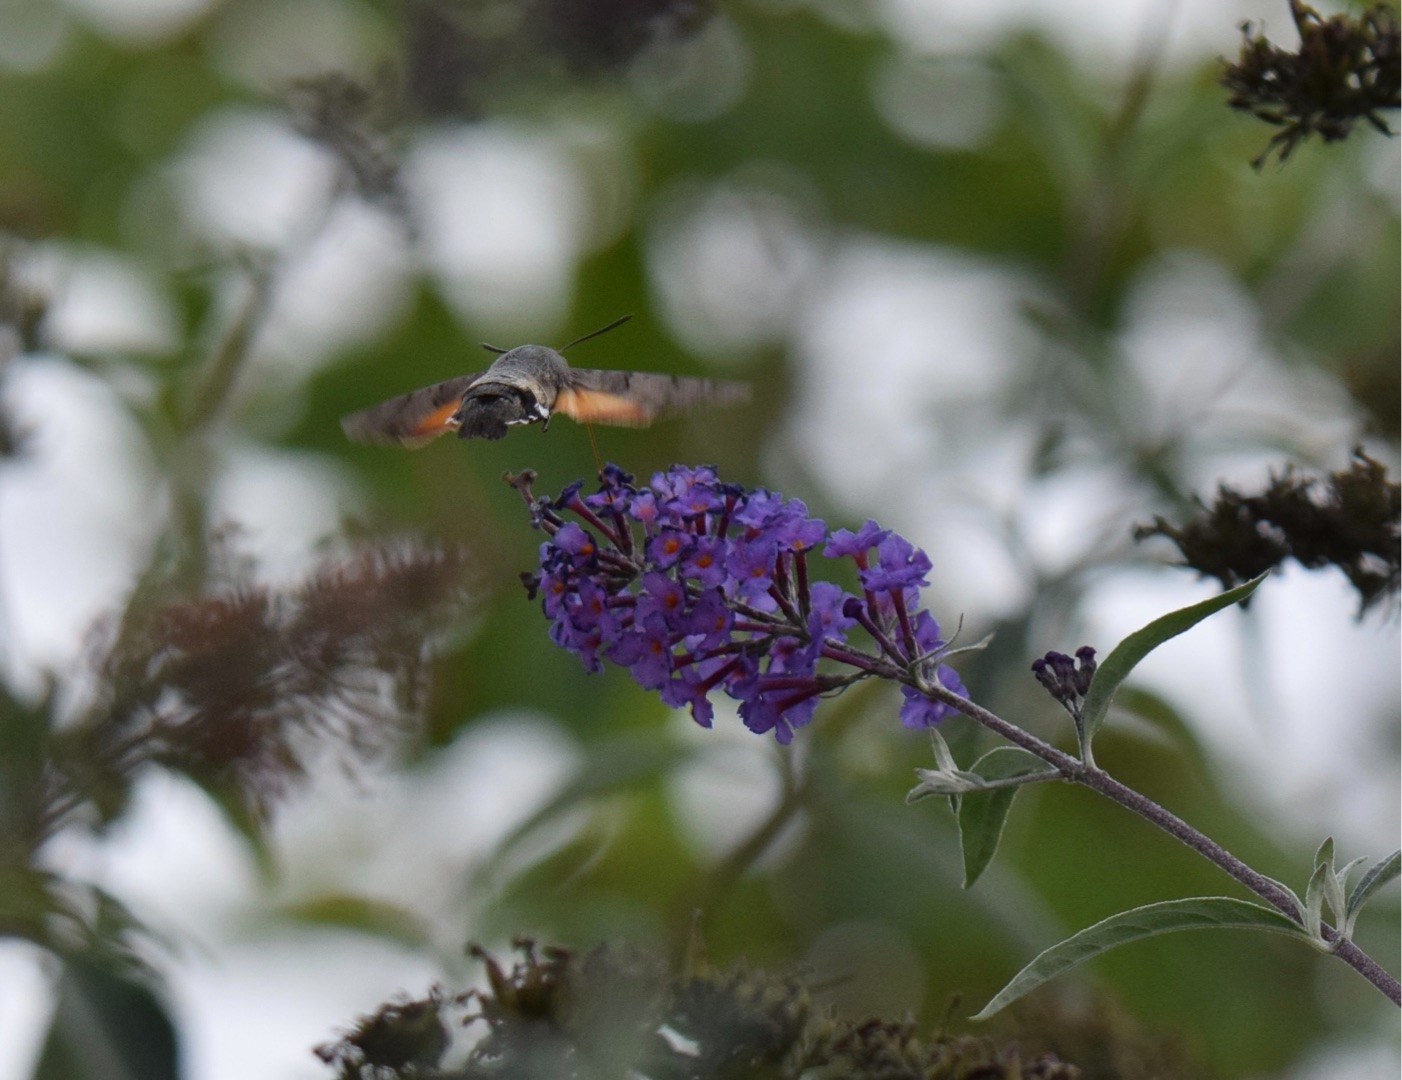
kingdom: Animalia
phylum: Arthropoda
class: Insecta
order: Lepidoptera
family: Sphingidae
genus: Macroglossum
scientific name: Macroglossum stellatarum
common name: Duehale
